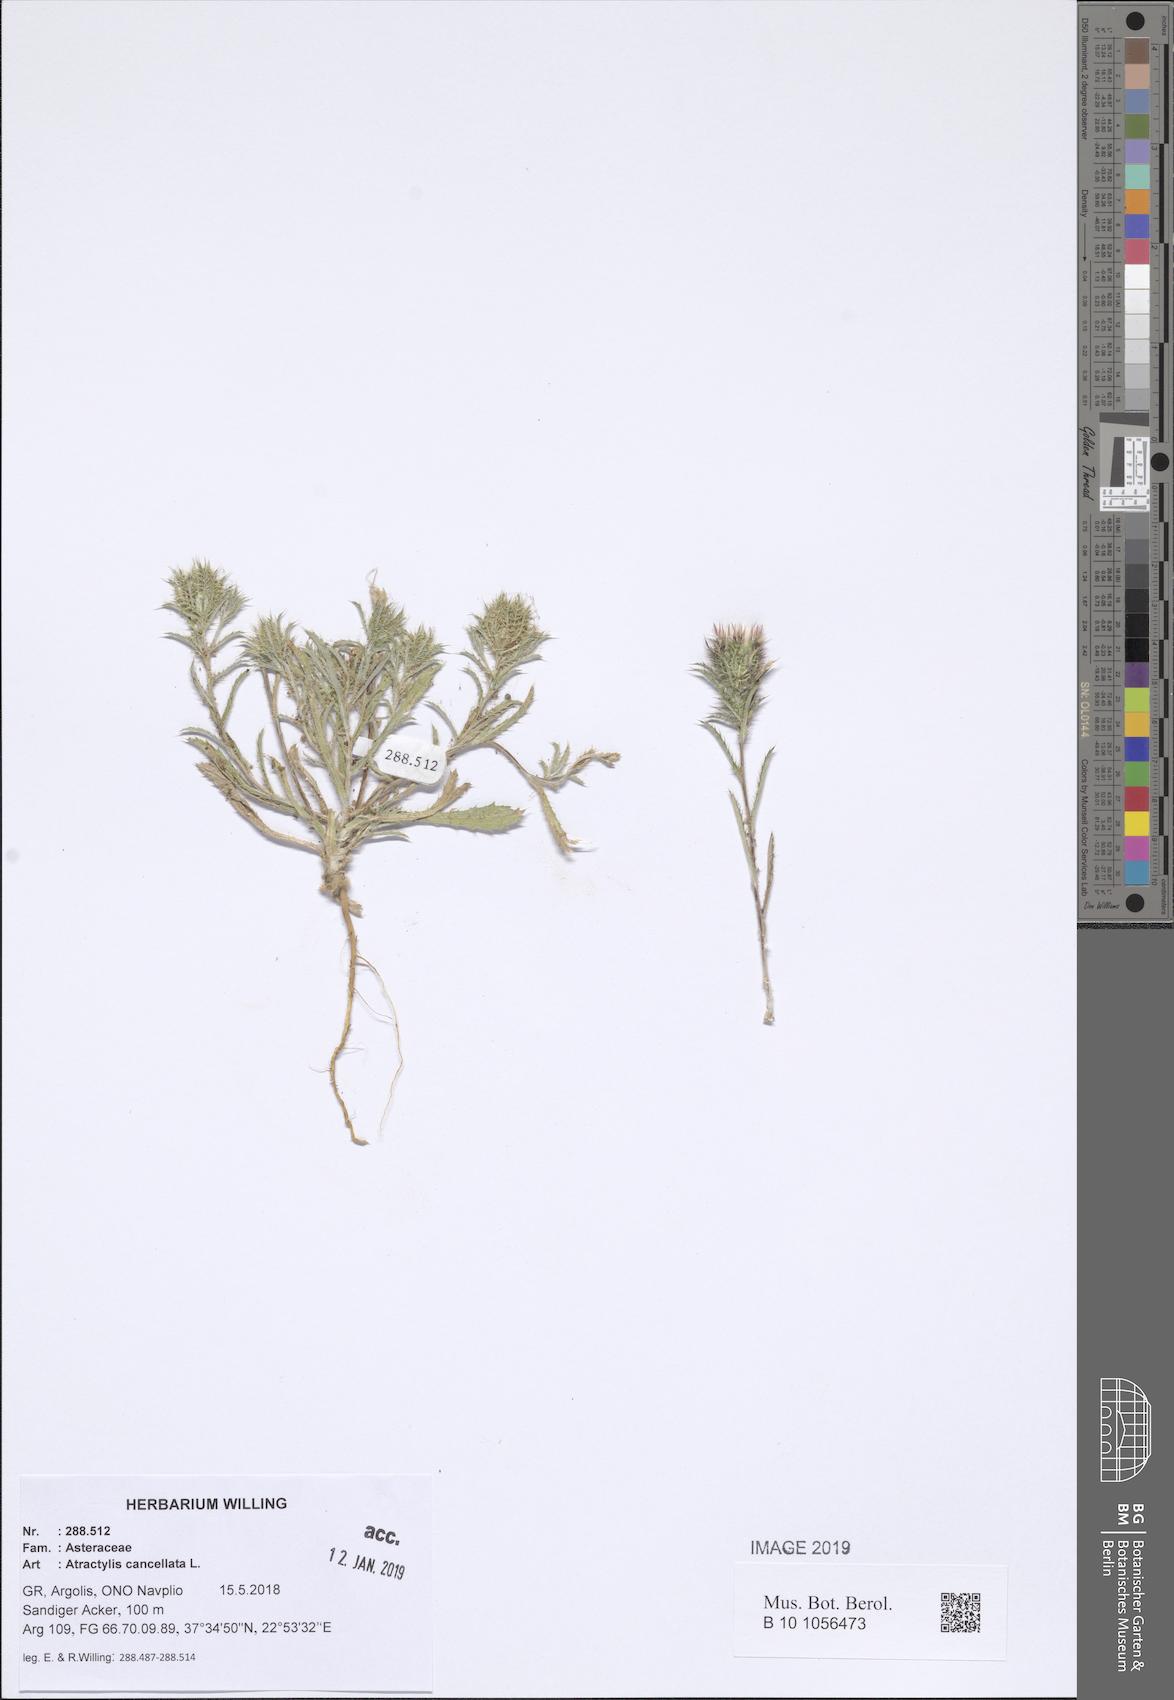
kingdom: Plantae
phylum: Tracheophyta
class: Magnoliopsida
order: Asterales
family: Asteraceae
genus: Atractylis
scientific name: Atractylis cancellata
